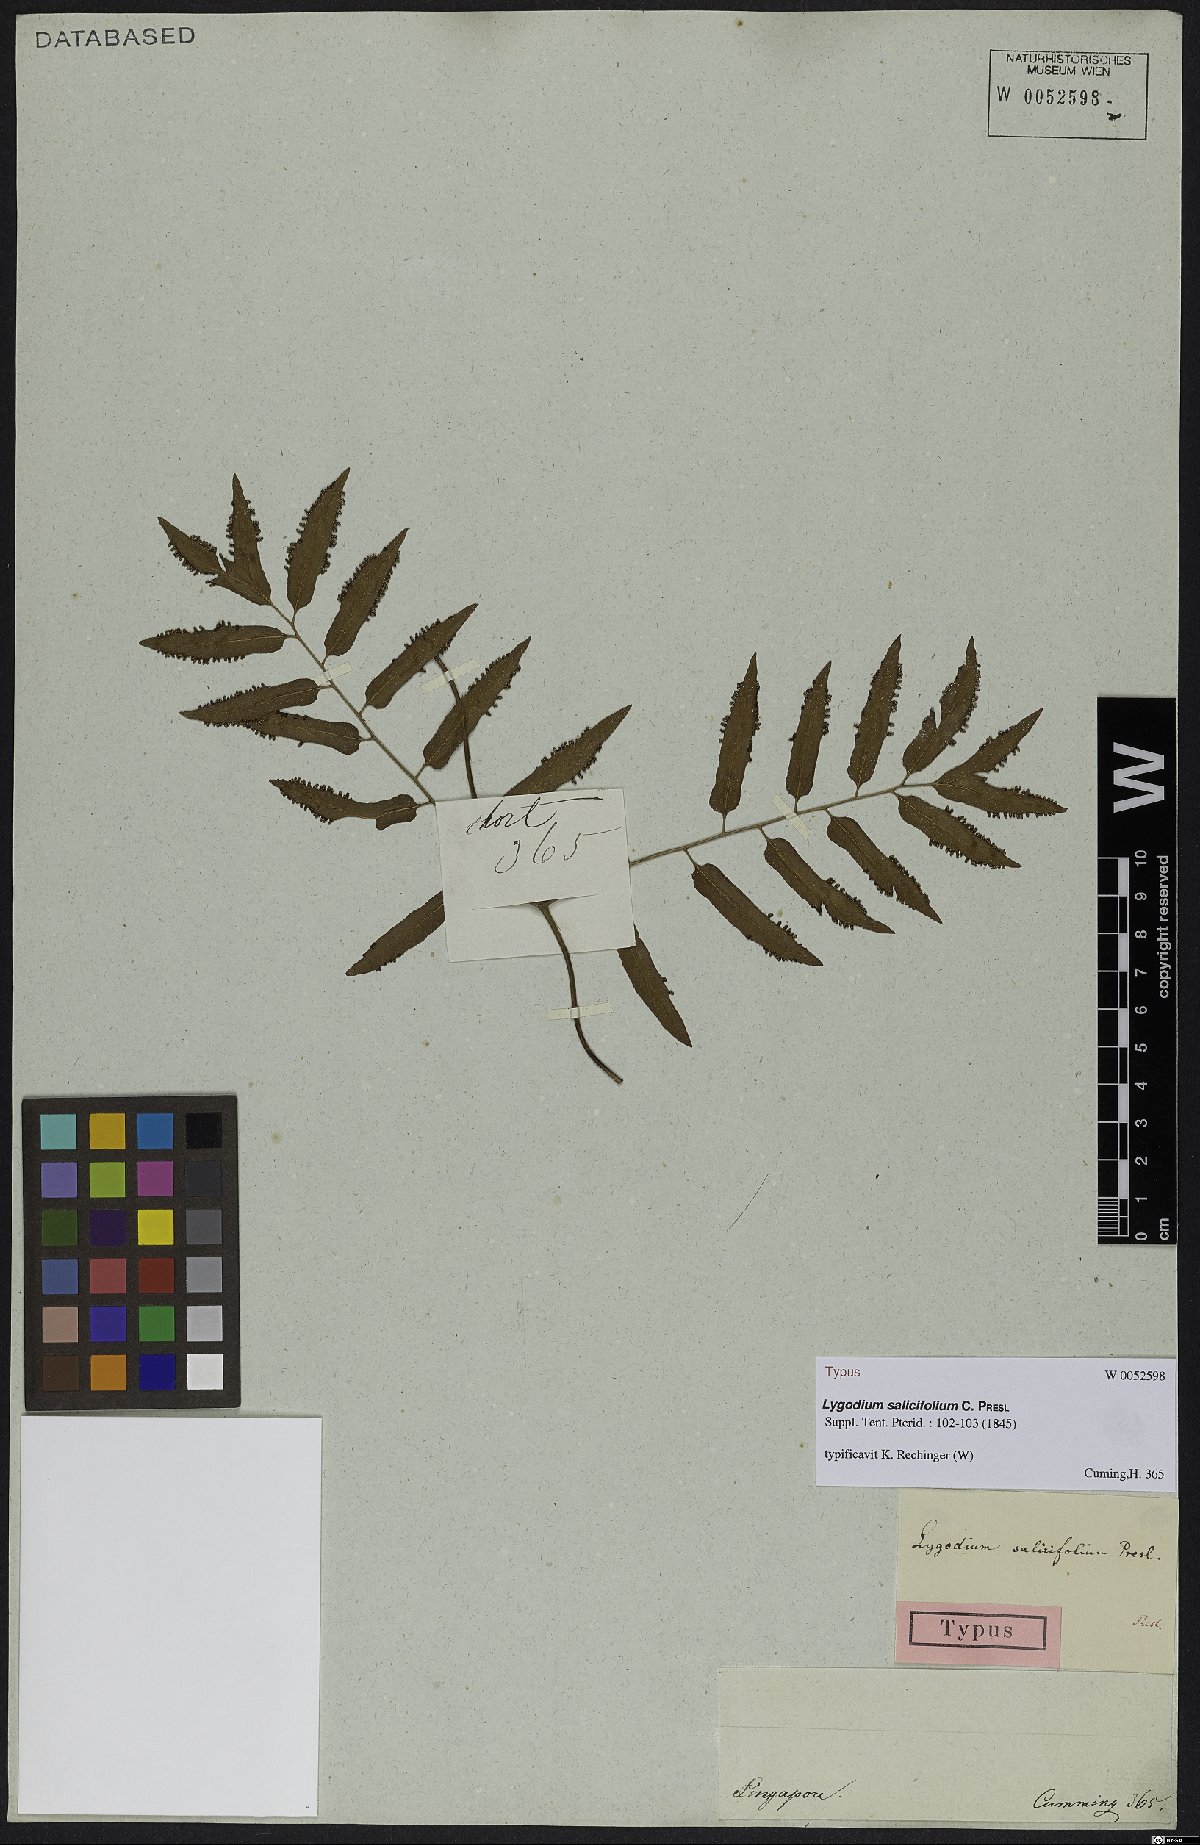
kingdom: Plantae
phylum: Tracheophyta
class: Polypodiopsida
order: Schizaeales
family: Lygodiaceae
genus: Lygodium
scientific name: Lygodium salicifolium
